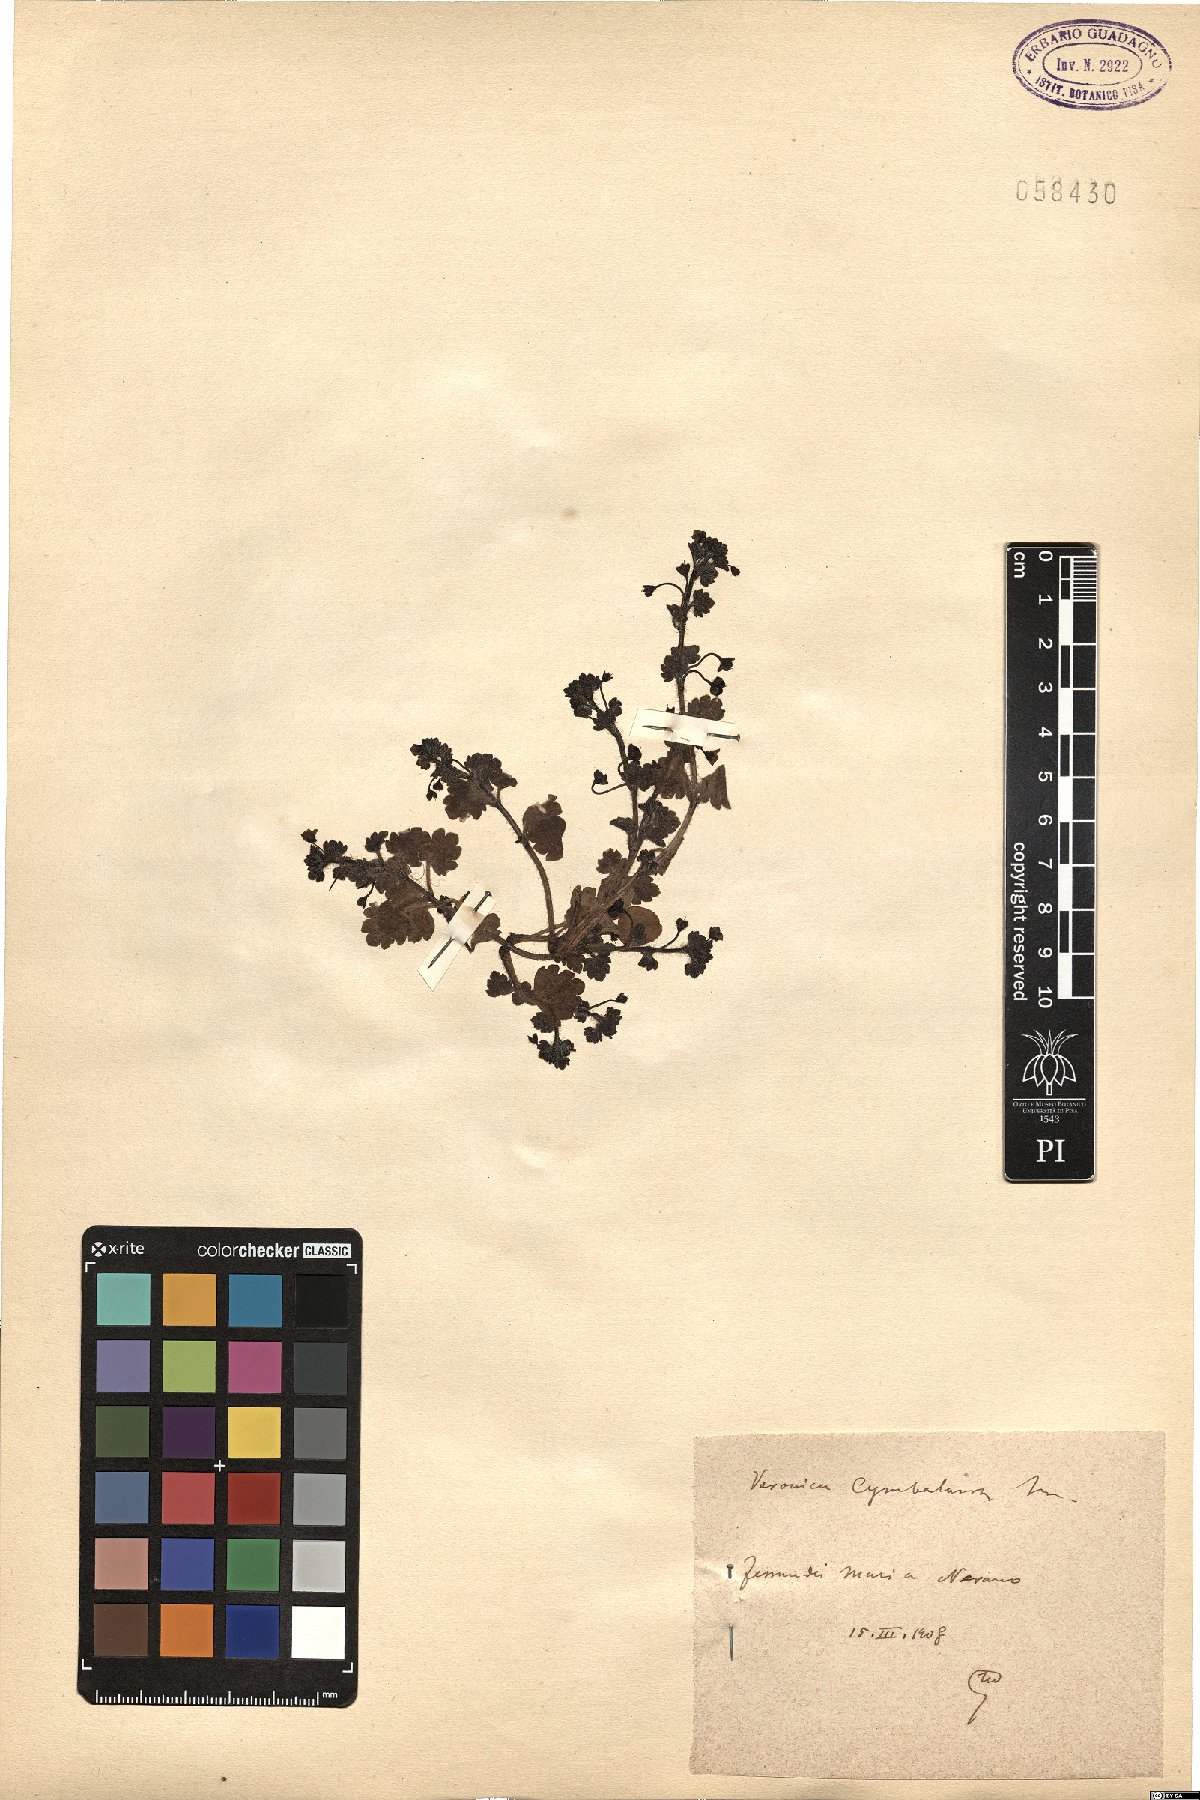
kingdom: Plantae
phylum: Tracheophyta
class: Magnoliopsida
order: Lamiales
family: Plantaginaceae
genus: Veronica
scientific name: Veronica cymbalaria
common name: Pale speedwell
